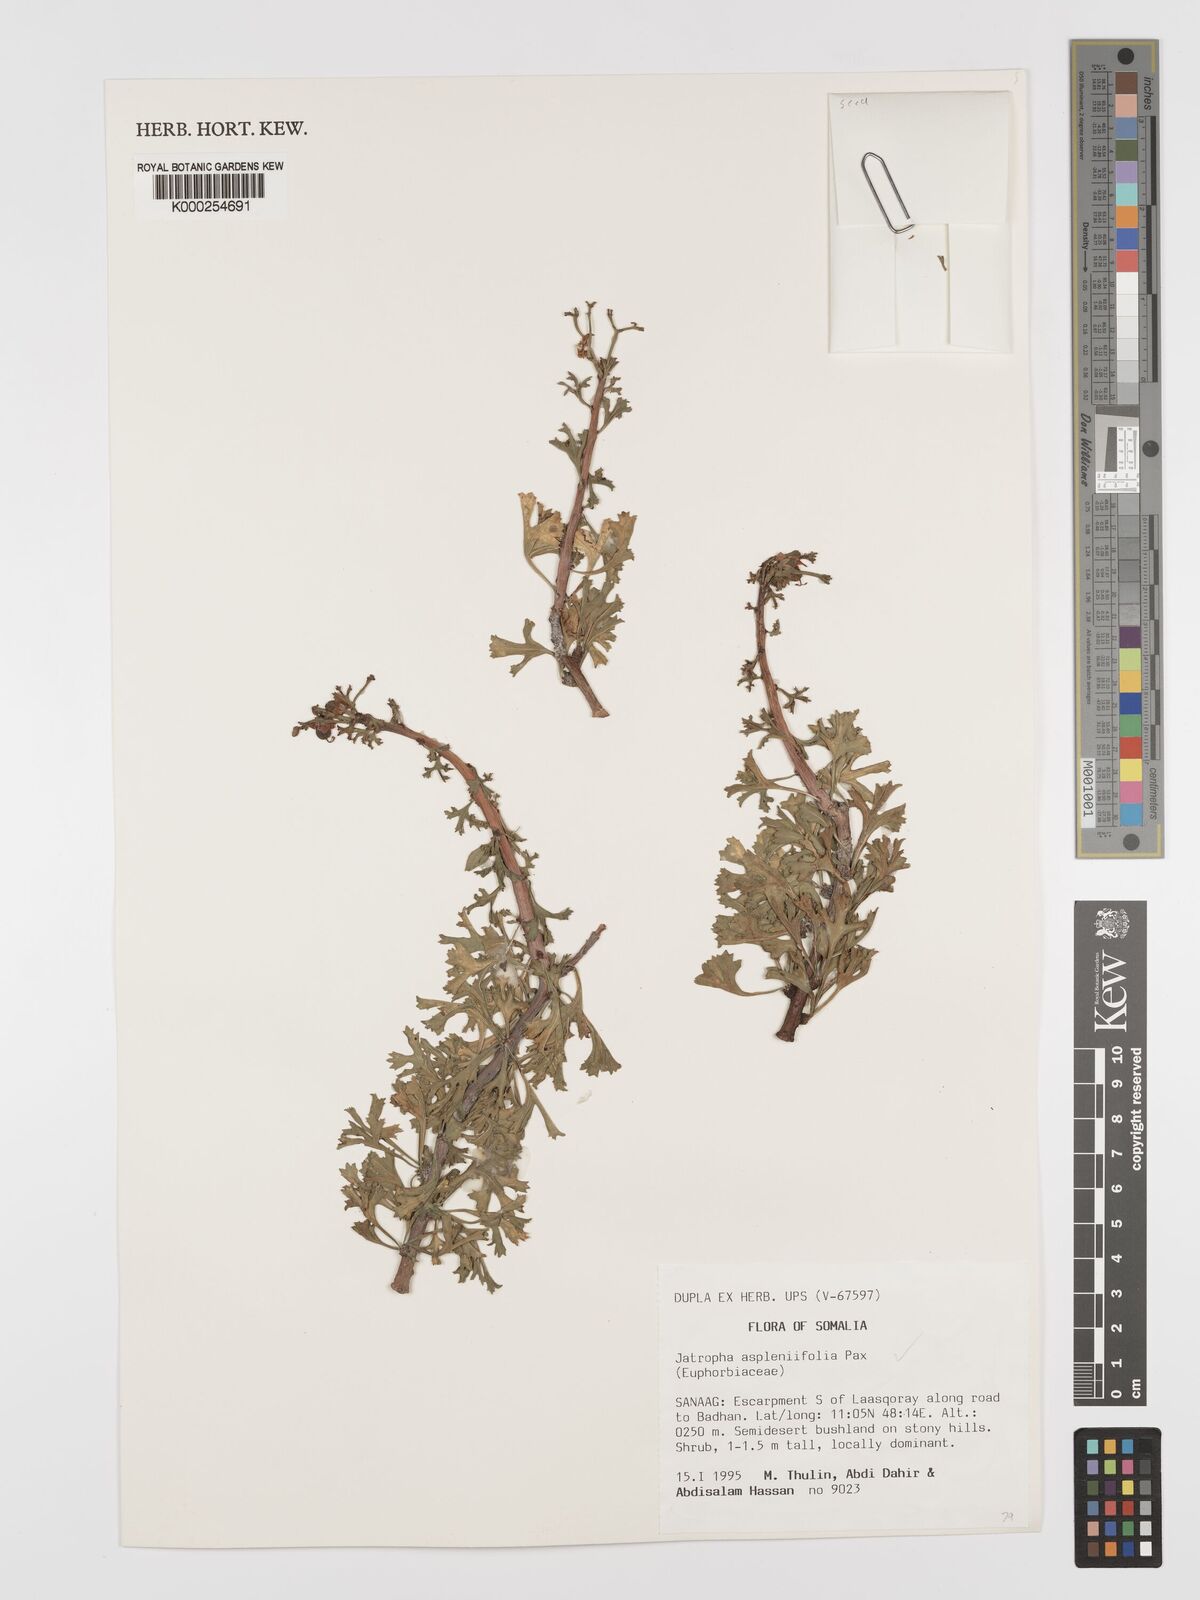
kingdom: Plantae
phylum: Tracheophyta
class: Magnoliopsida
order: Malpighiales
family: Euphorbiaceae
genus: Jatropha
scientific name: Jatropha aspleniifolia
